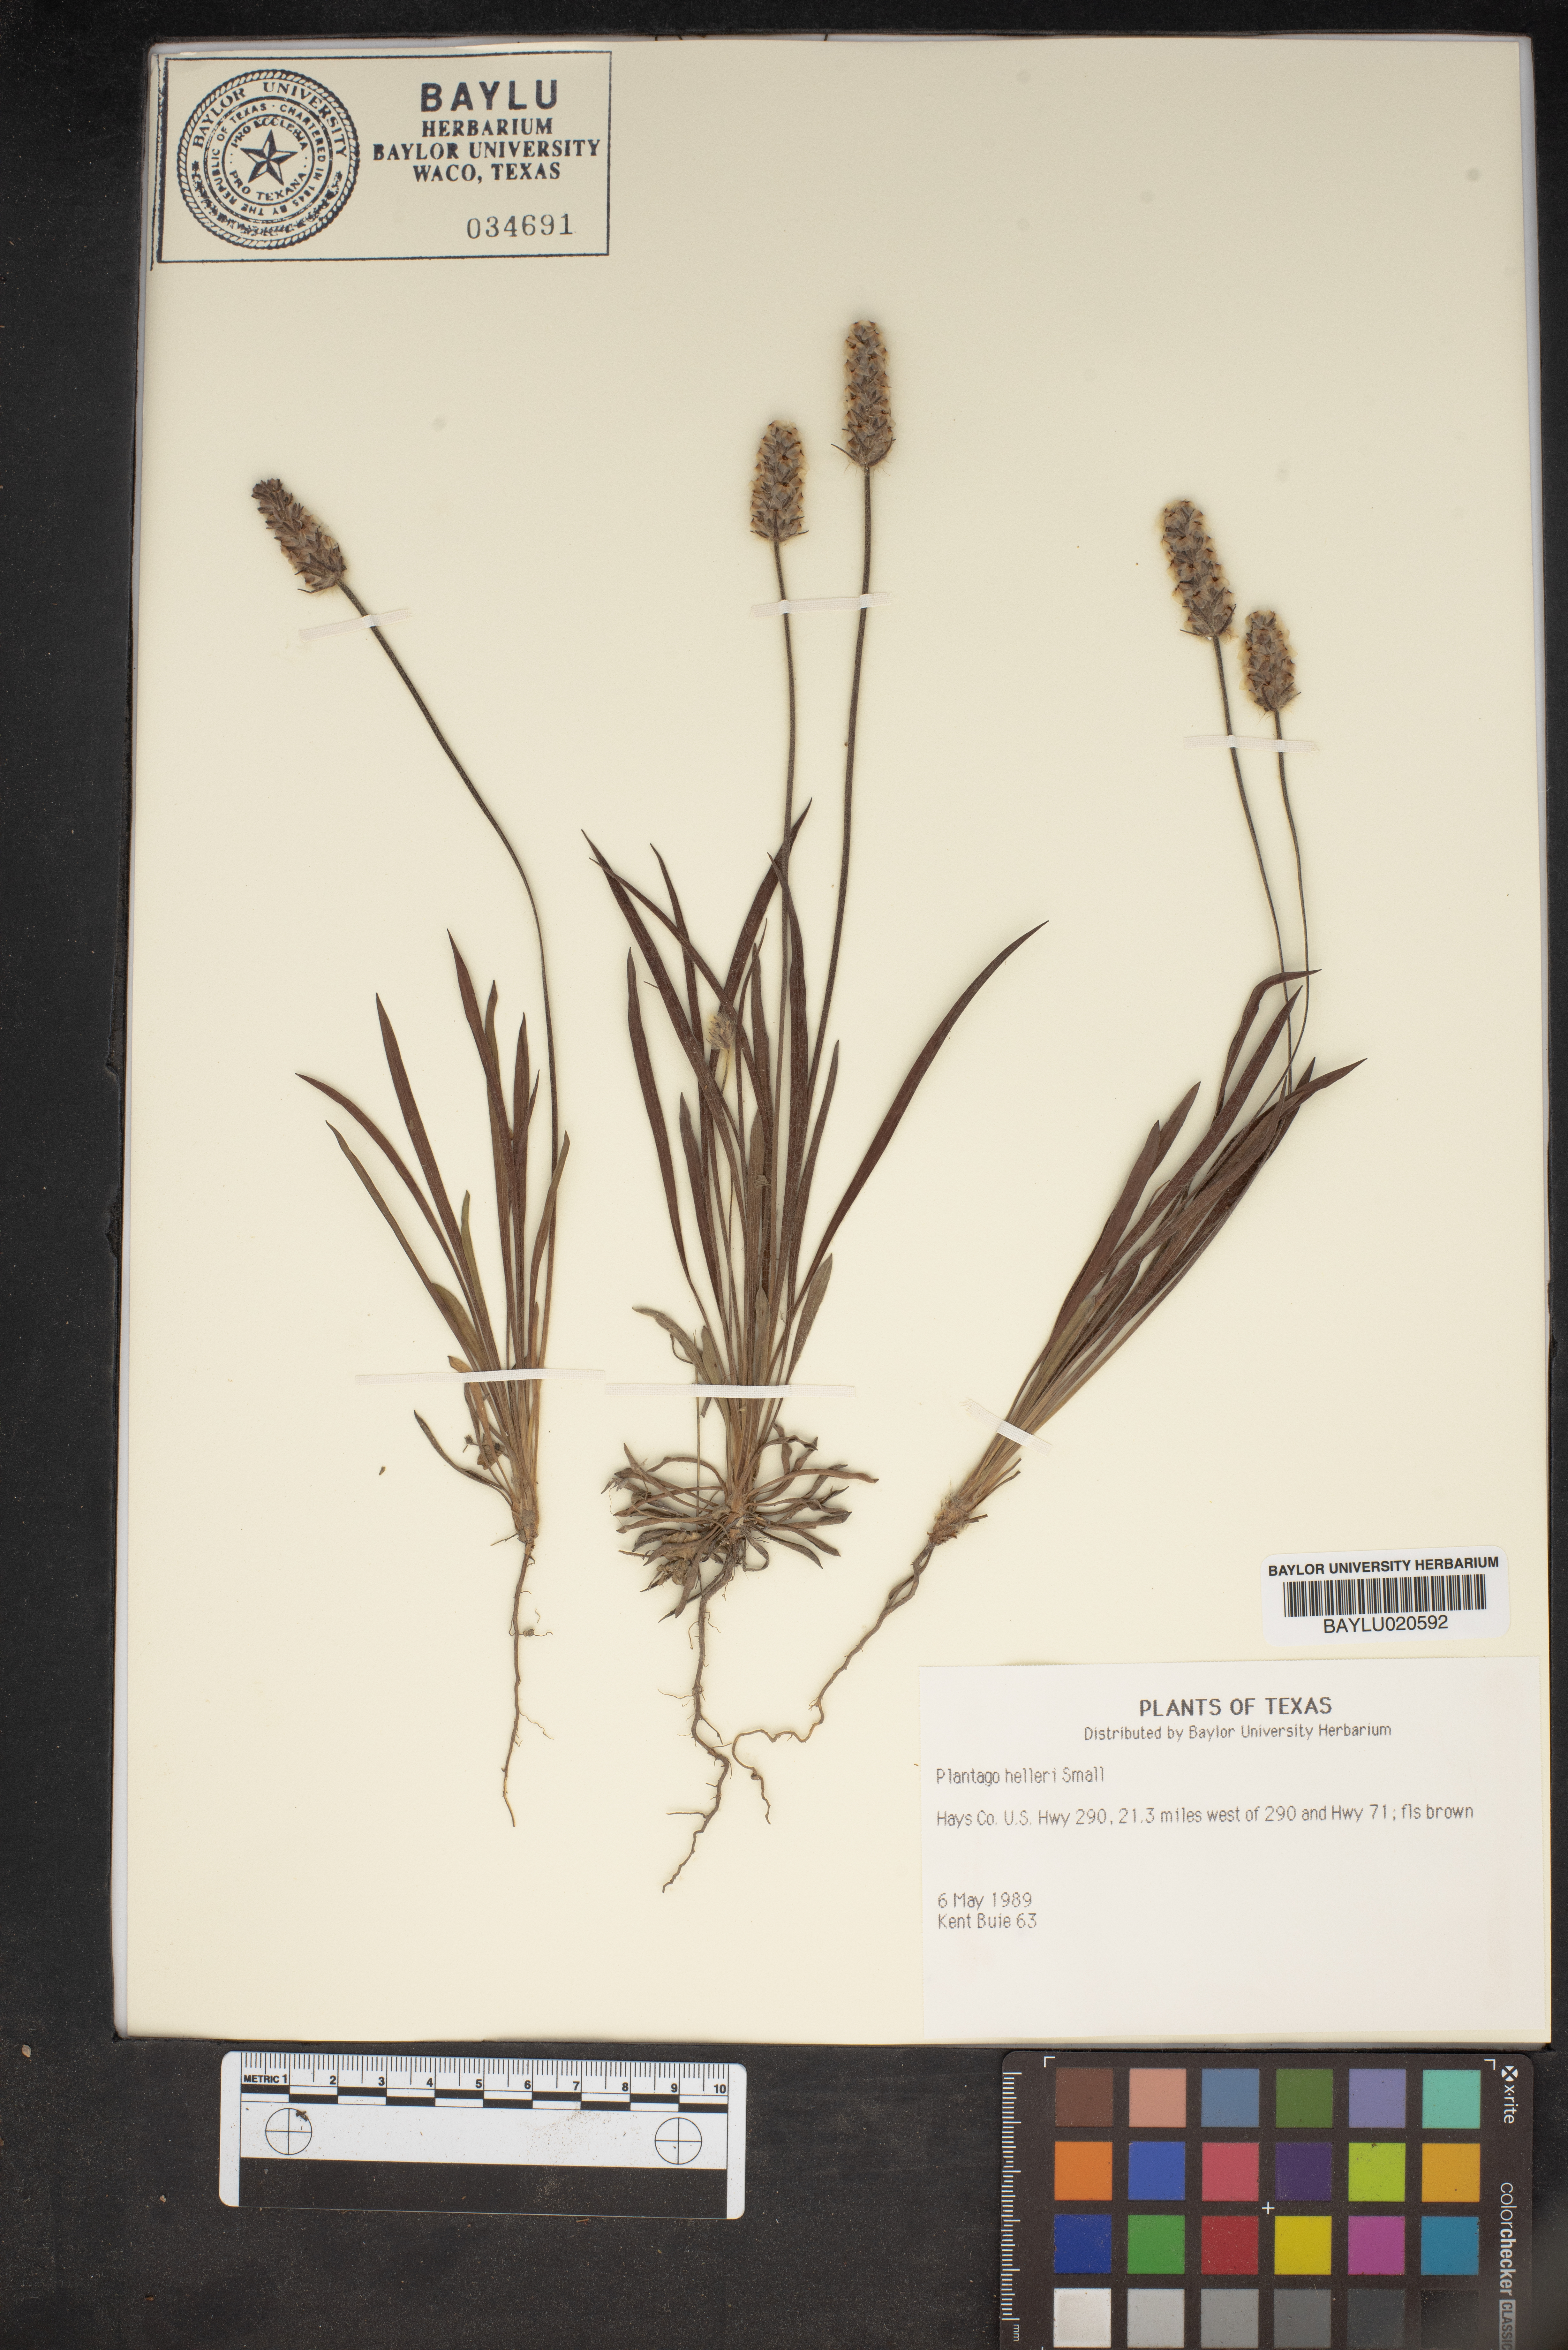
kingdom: Plantae
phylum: Tracheophyta
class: Magnoliopsida
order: Lamiales
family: Plantaginaceae
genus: Plantago
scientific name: Plantago helleri
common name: Heller's plantain
